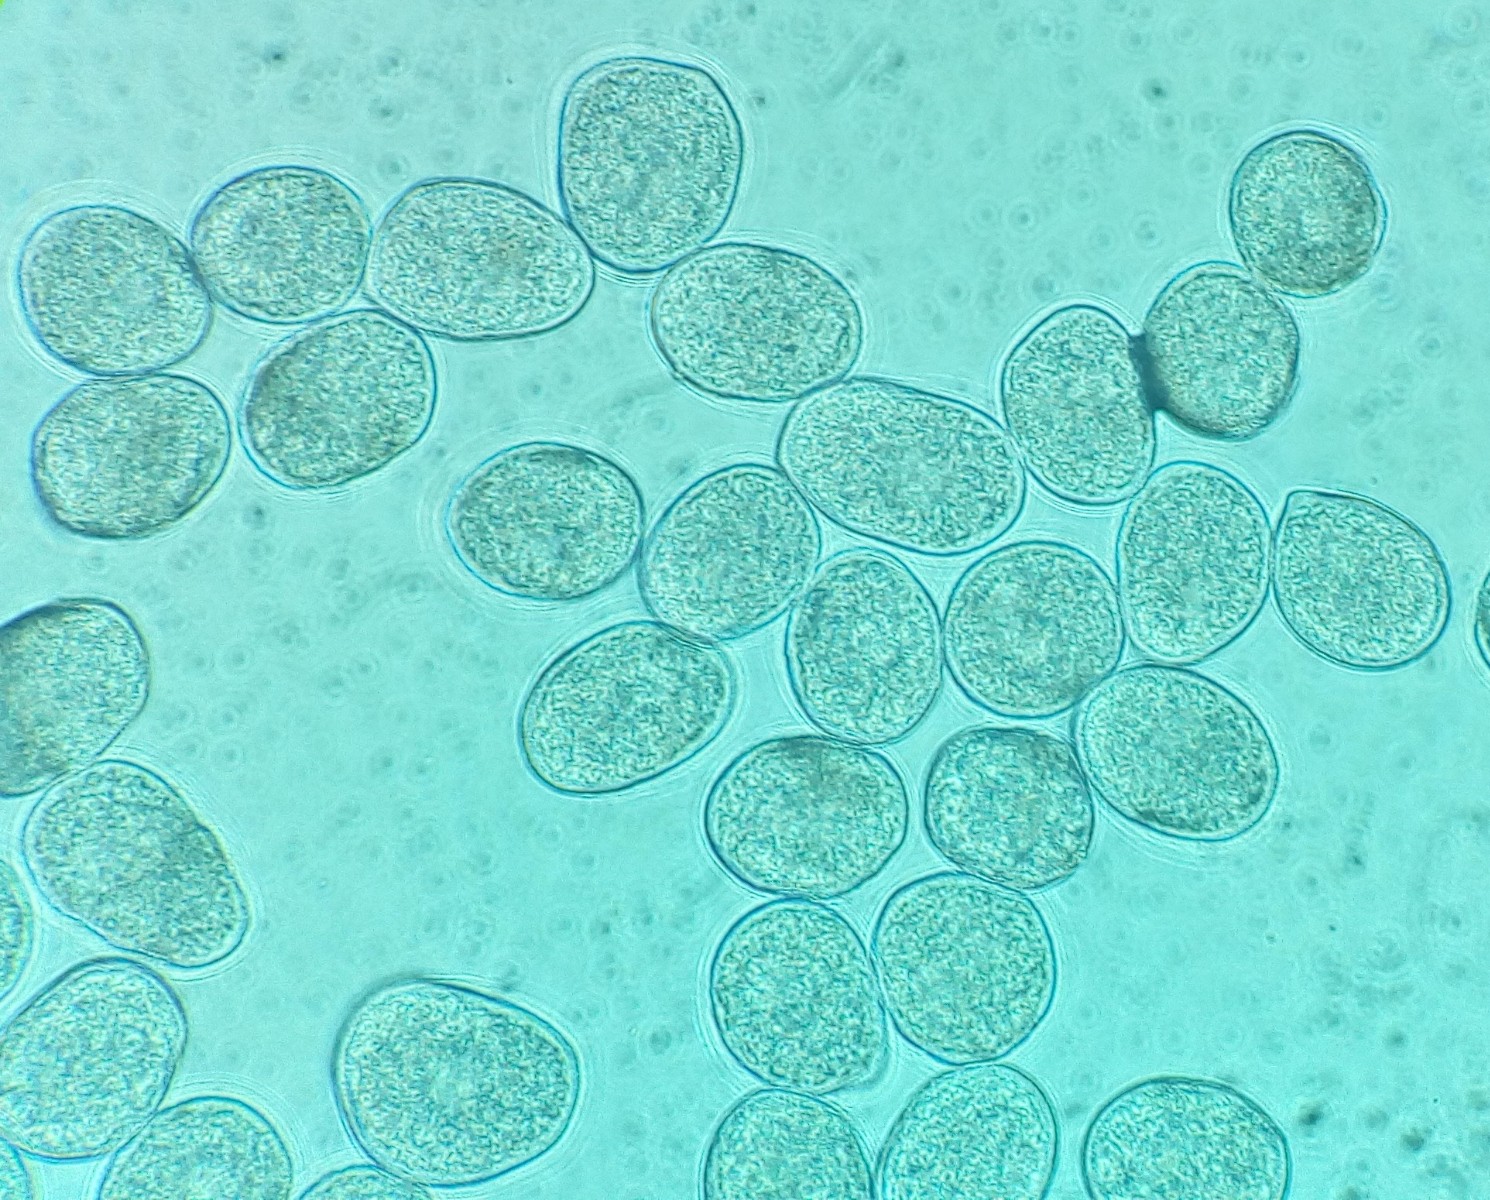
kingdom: Fungi
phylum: Basidiomycota
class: Pucciniomycetes
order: Pucciniales
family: Ochropsoraceae
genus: Ochropsora
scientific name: Ochropsora ariae
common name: anemone-okkerpletrust
